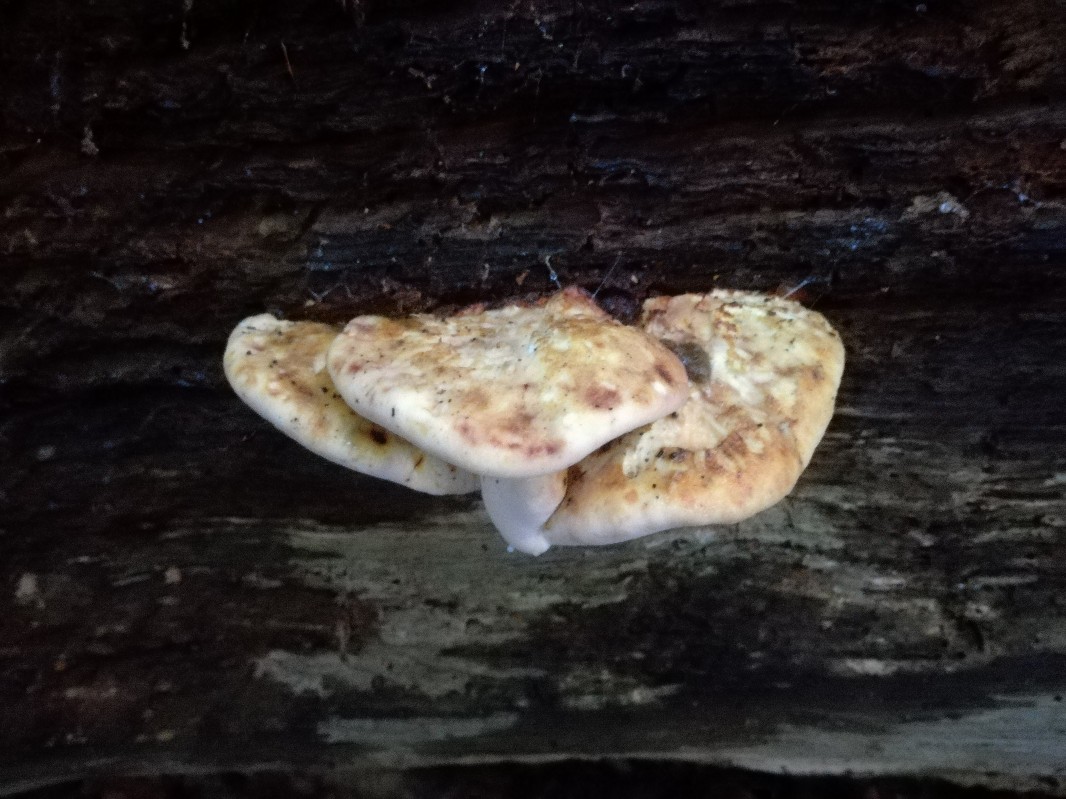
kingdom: Fungi
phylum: Basidiomycota
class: Agaricomycetes
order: Polyporales
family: Fomitopsidaceae
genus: Buglossoporus
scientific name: Buglossoporus quercinus
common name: egetunge
